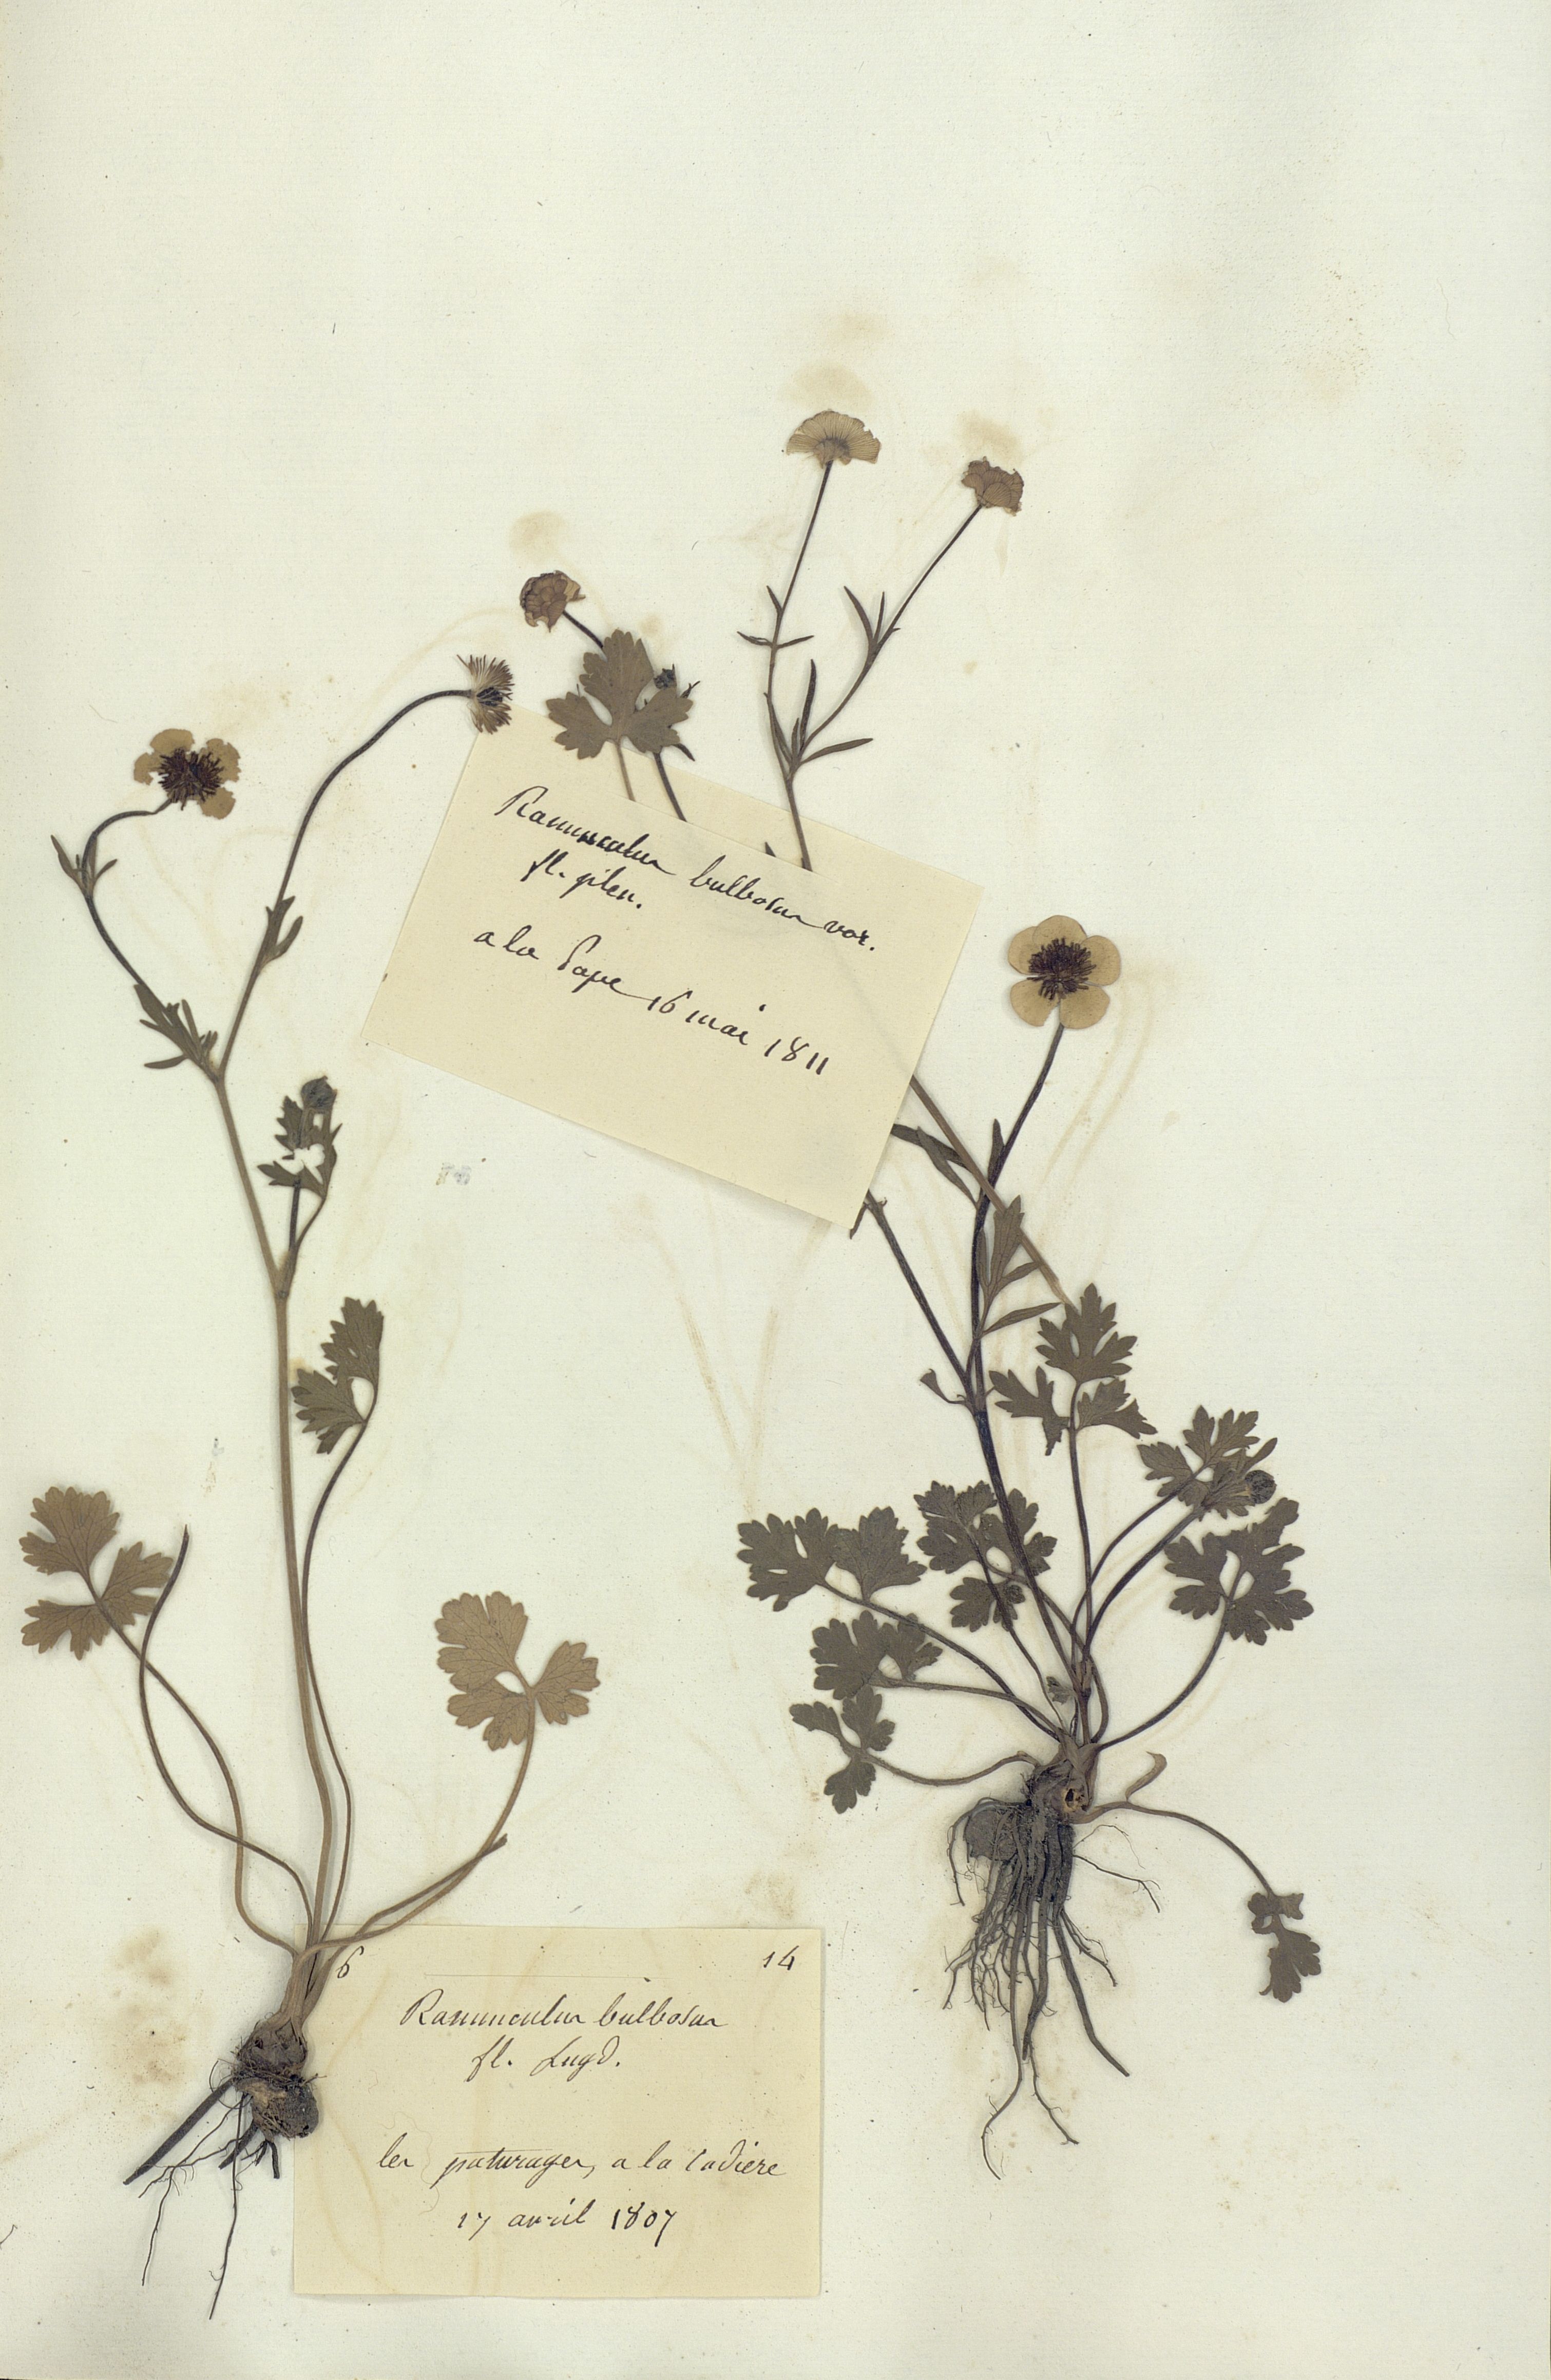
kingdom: Plantae
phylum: Tracheophyta
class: Magnoliopsida
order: Ranunculales
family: Ranunculaceae
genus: Ranunculus
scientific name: Ranunculus bulbosus
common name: Bulbous buttercup
